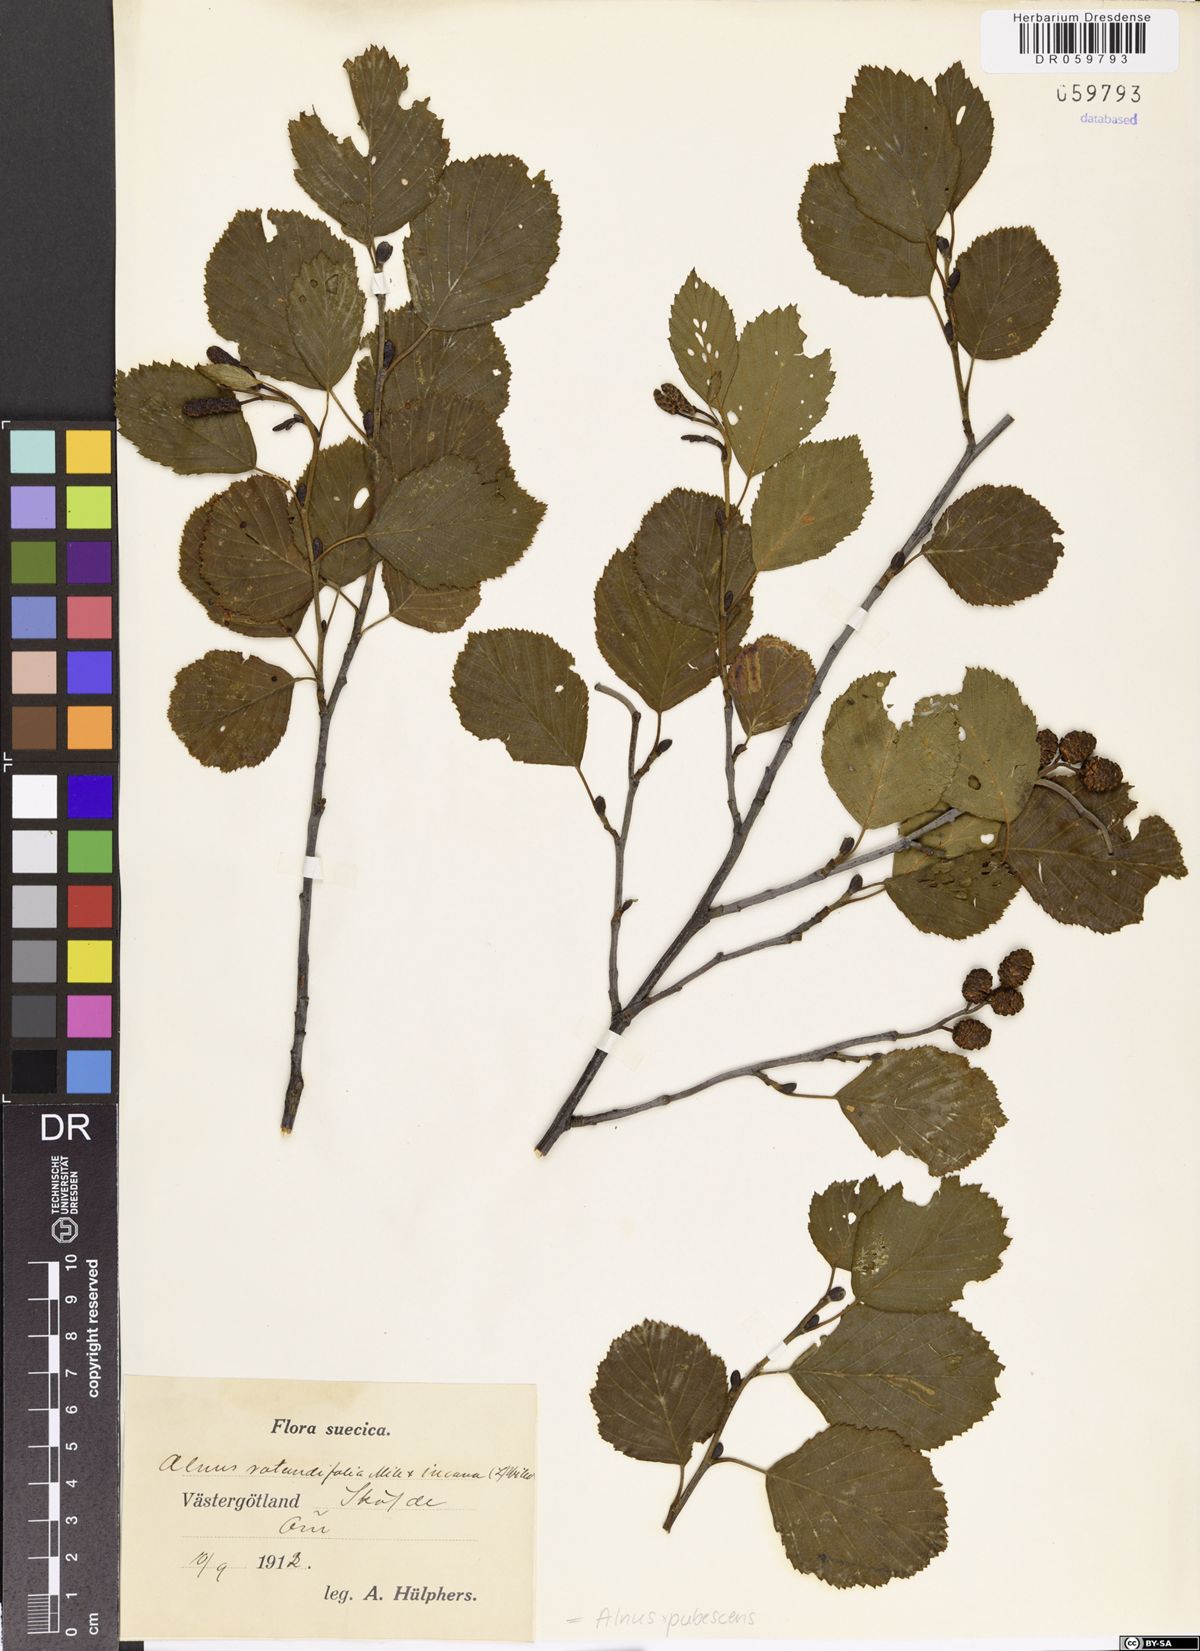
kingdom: Plantae
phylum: Tracheophyta
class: Magnoliopsida
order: Fagales
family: Betulaceae
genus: Alnus
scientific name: Alnus pubescens
